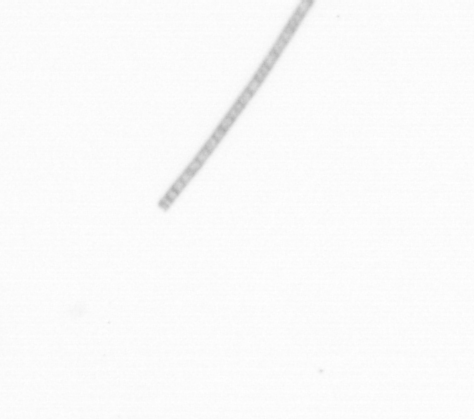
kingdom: Chromista
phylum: Ochrophyta
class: Bacillariophyceae
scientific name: Bacillariophyceae
